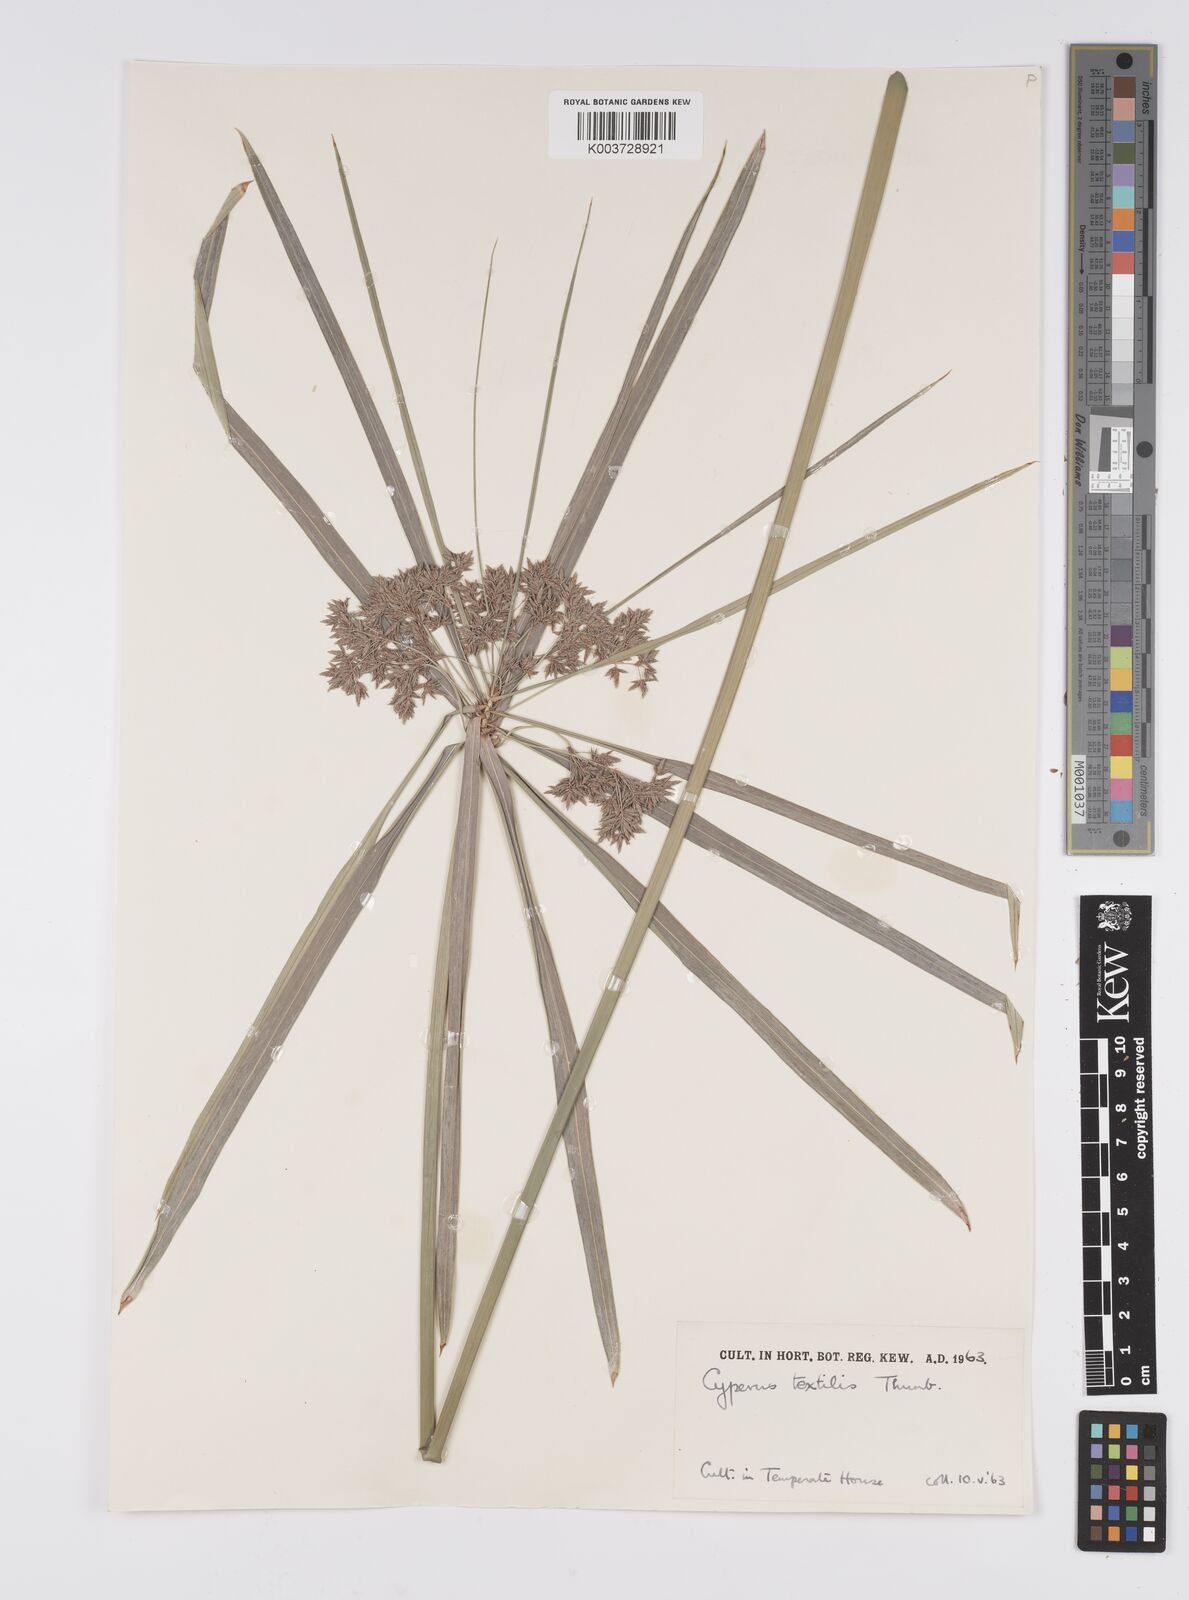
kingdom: Plantae
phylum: Tracheophyta
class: Liliopsida
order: Poales
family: Cyperaceae
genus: Cyperus
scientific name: Cyperus alternifolius
